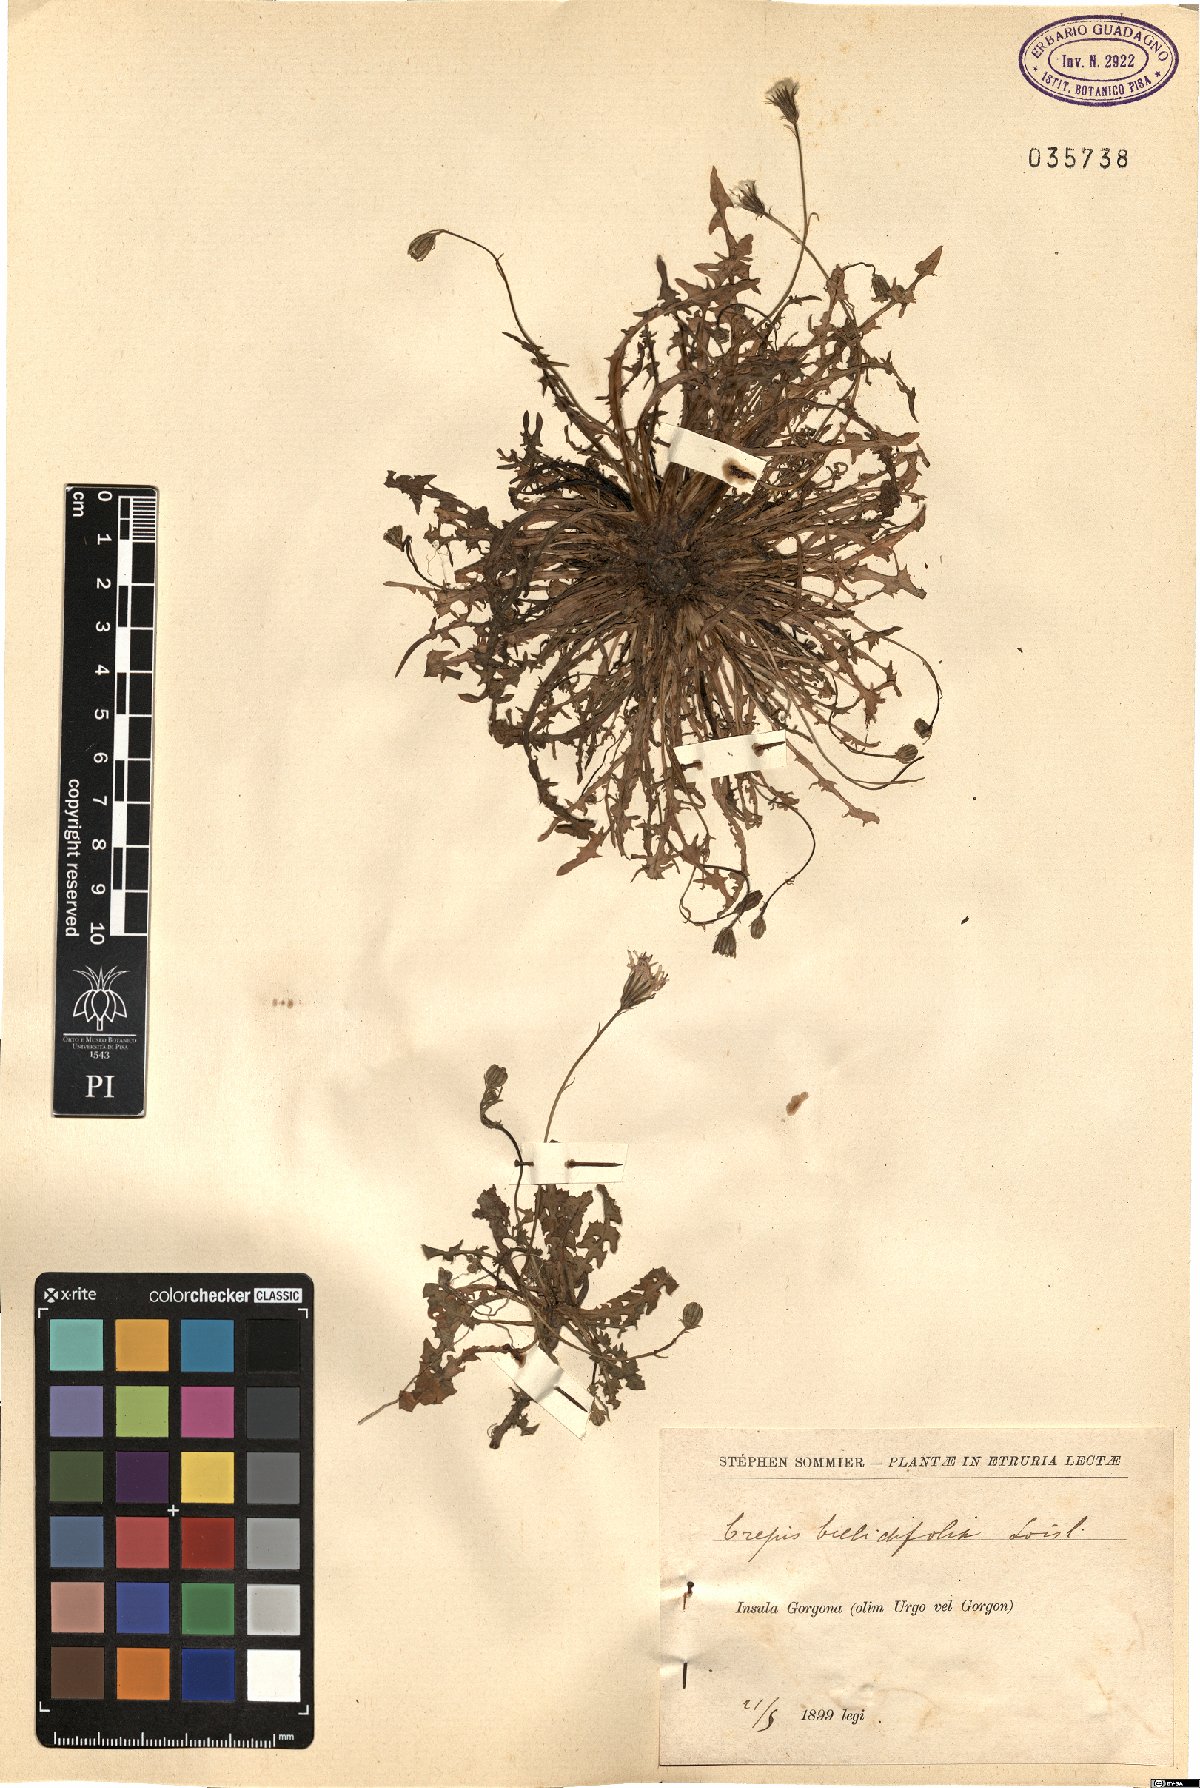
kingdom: Plantae
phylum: Tracheophyta
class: Magnoliopsida
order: Asterales
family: Asteraceae
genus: Crepis
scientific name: Crepis bellidifolia
